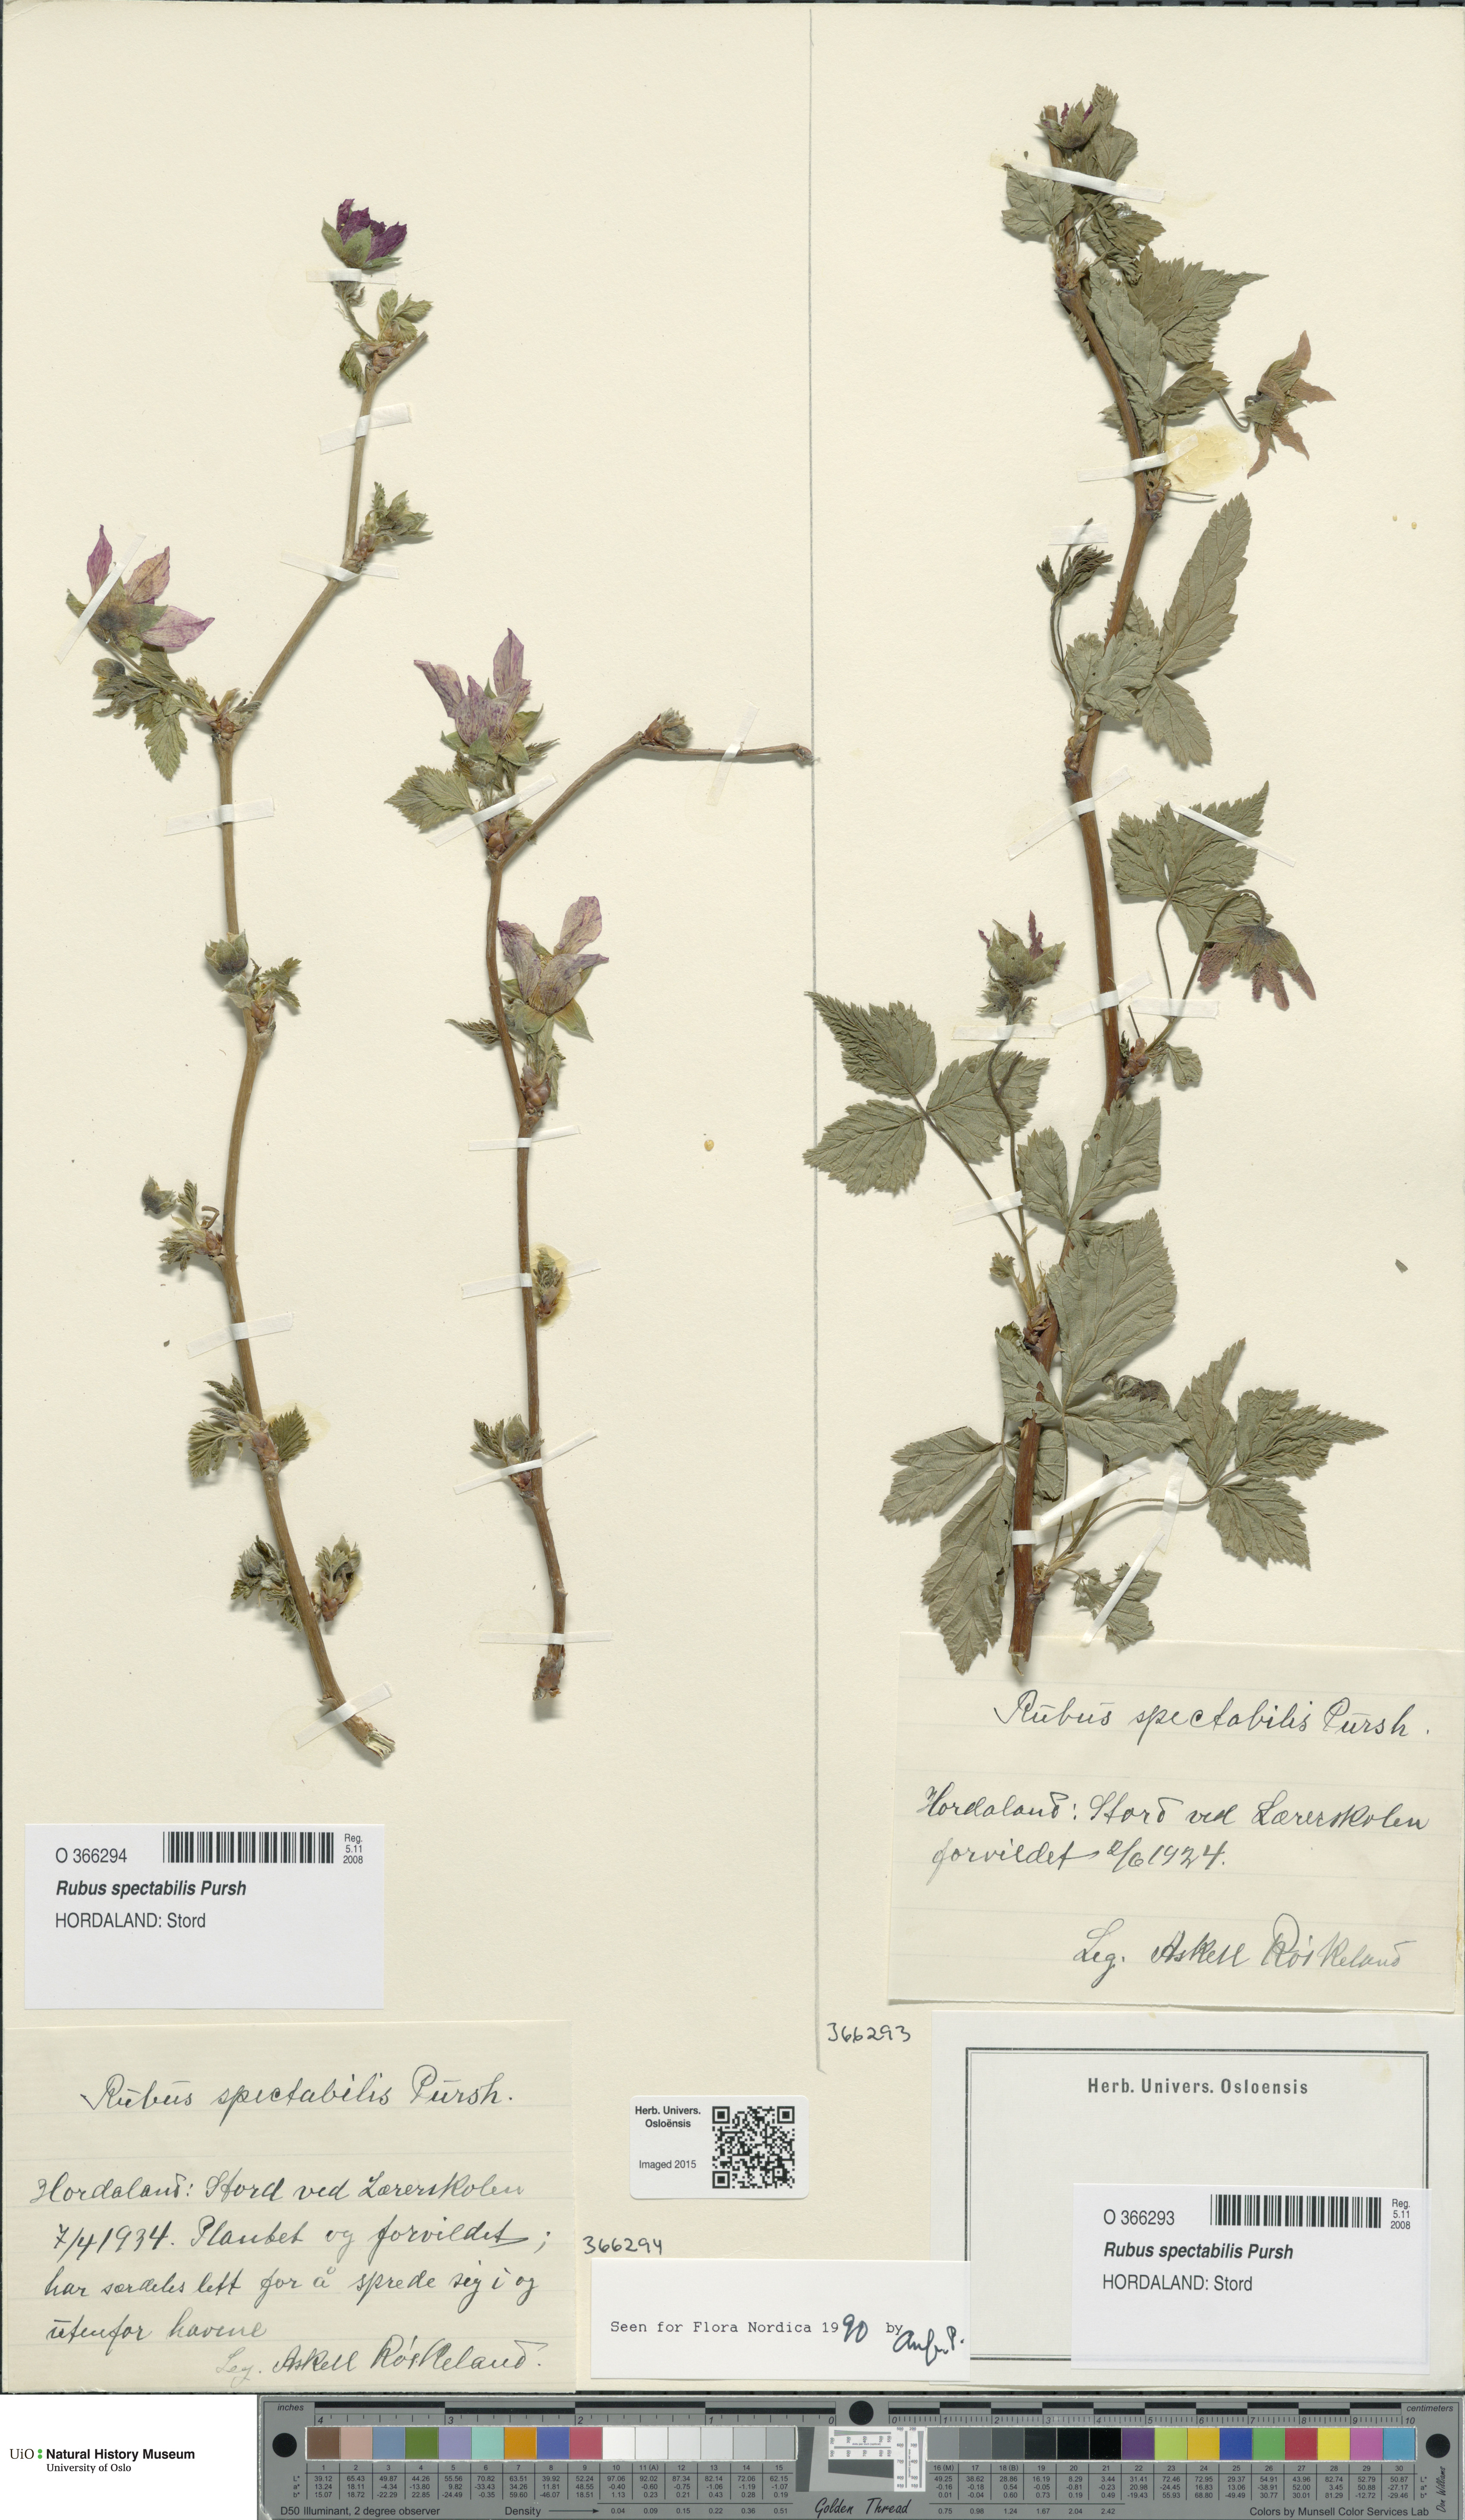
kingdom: Plantae
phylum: Tracheophyta
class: Magnoliopsida
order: Rosales
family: Rosaceae
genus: Rubus
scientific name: Rubus spectabilis
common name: Salmonberry
